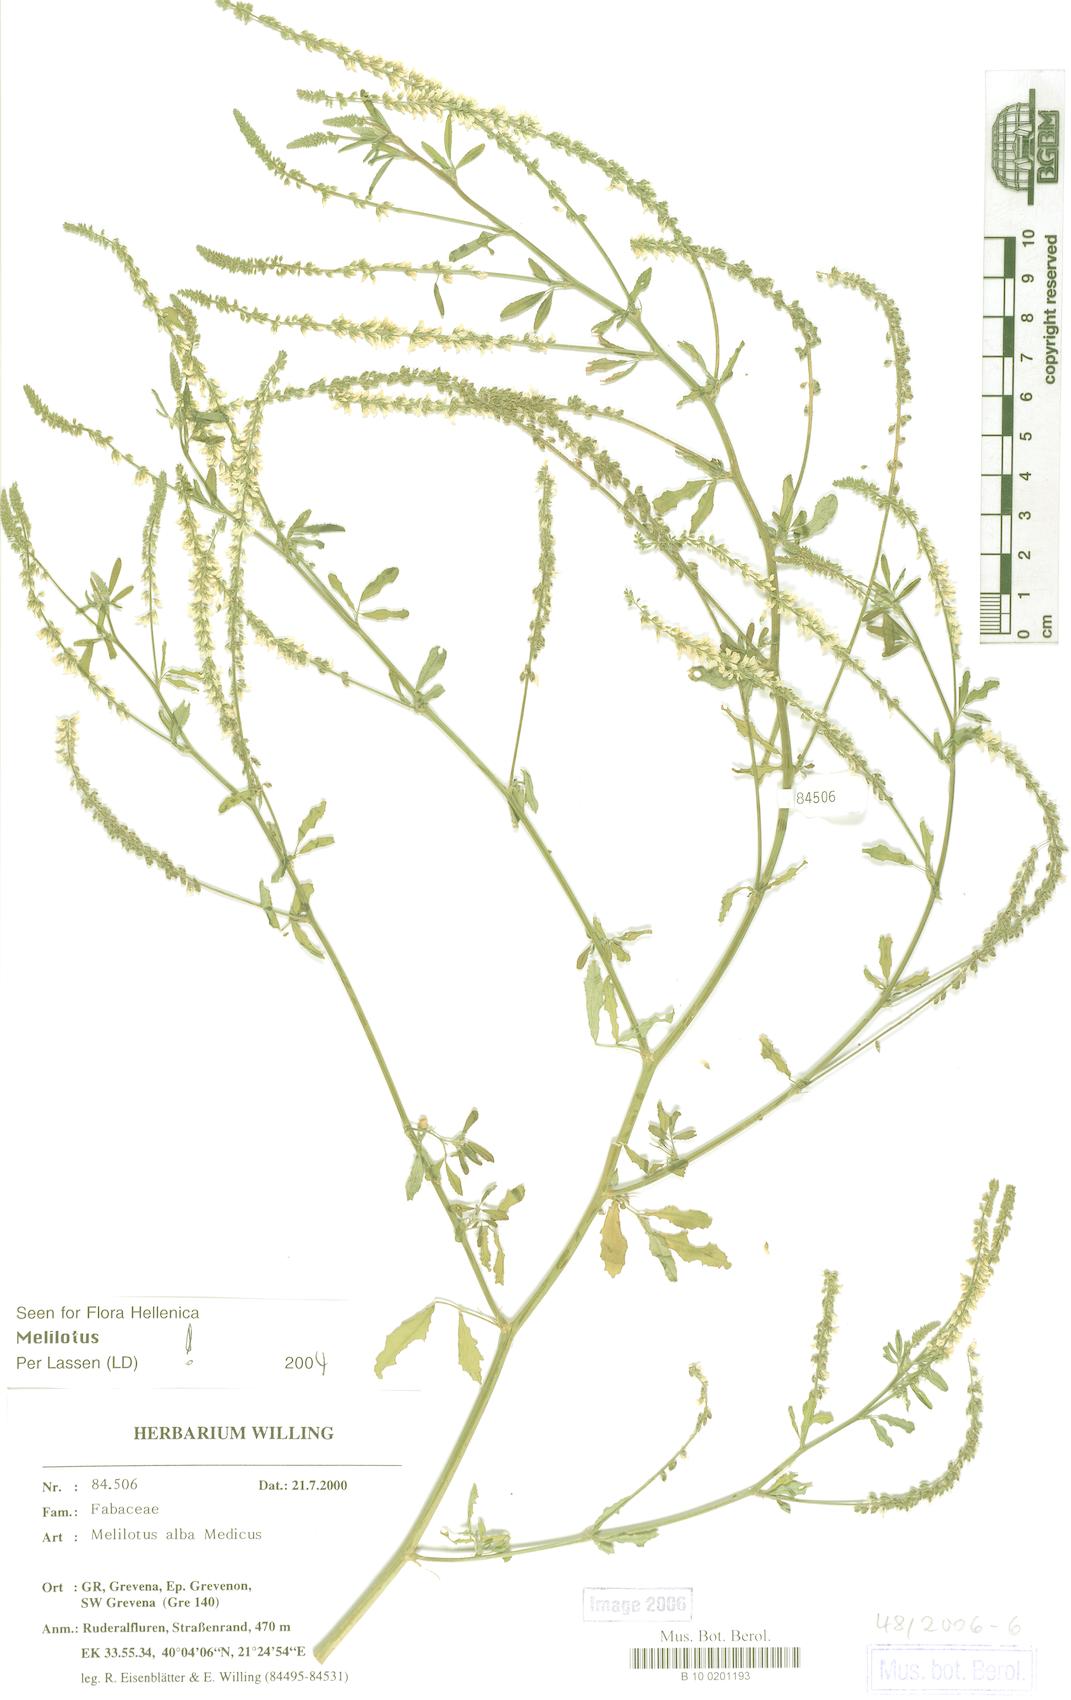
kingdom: Plantae
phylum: Tracheophyta
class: Magnoliopsida
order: Fabales
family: Fabaceae
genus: Melilotus
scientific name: Melilotus albus
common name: White melilot
